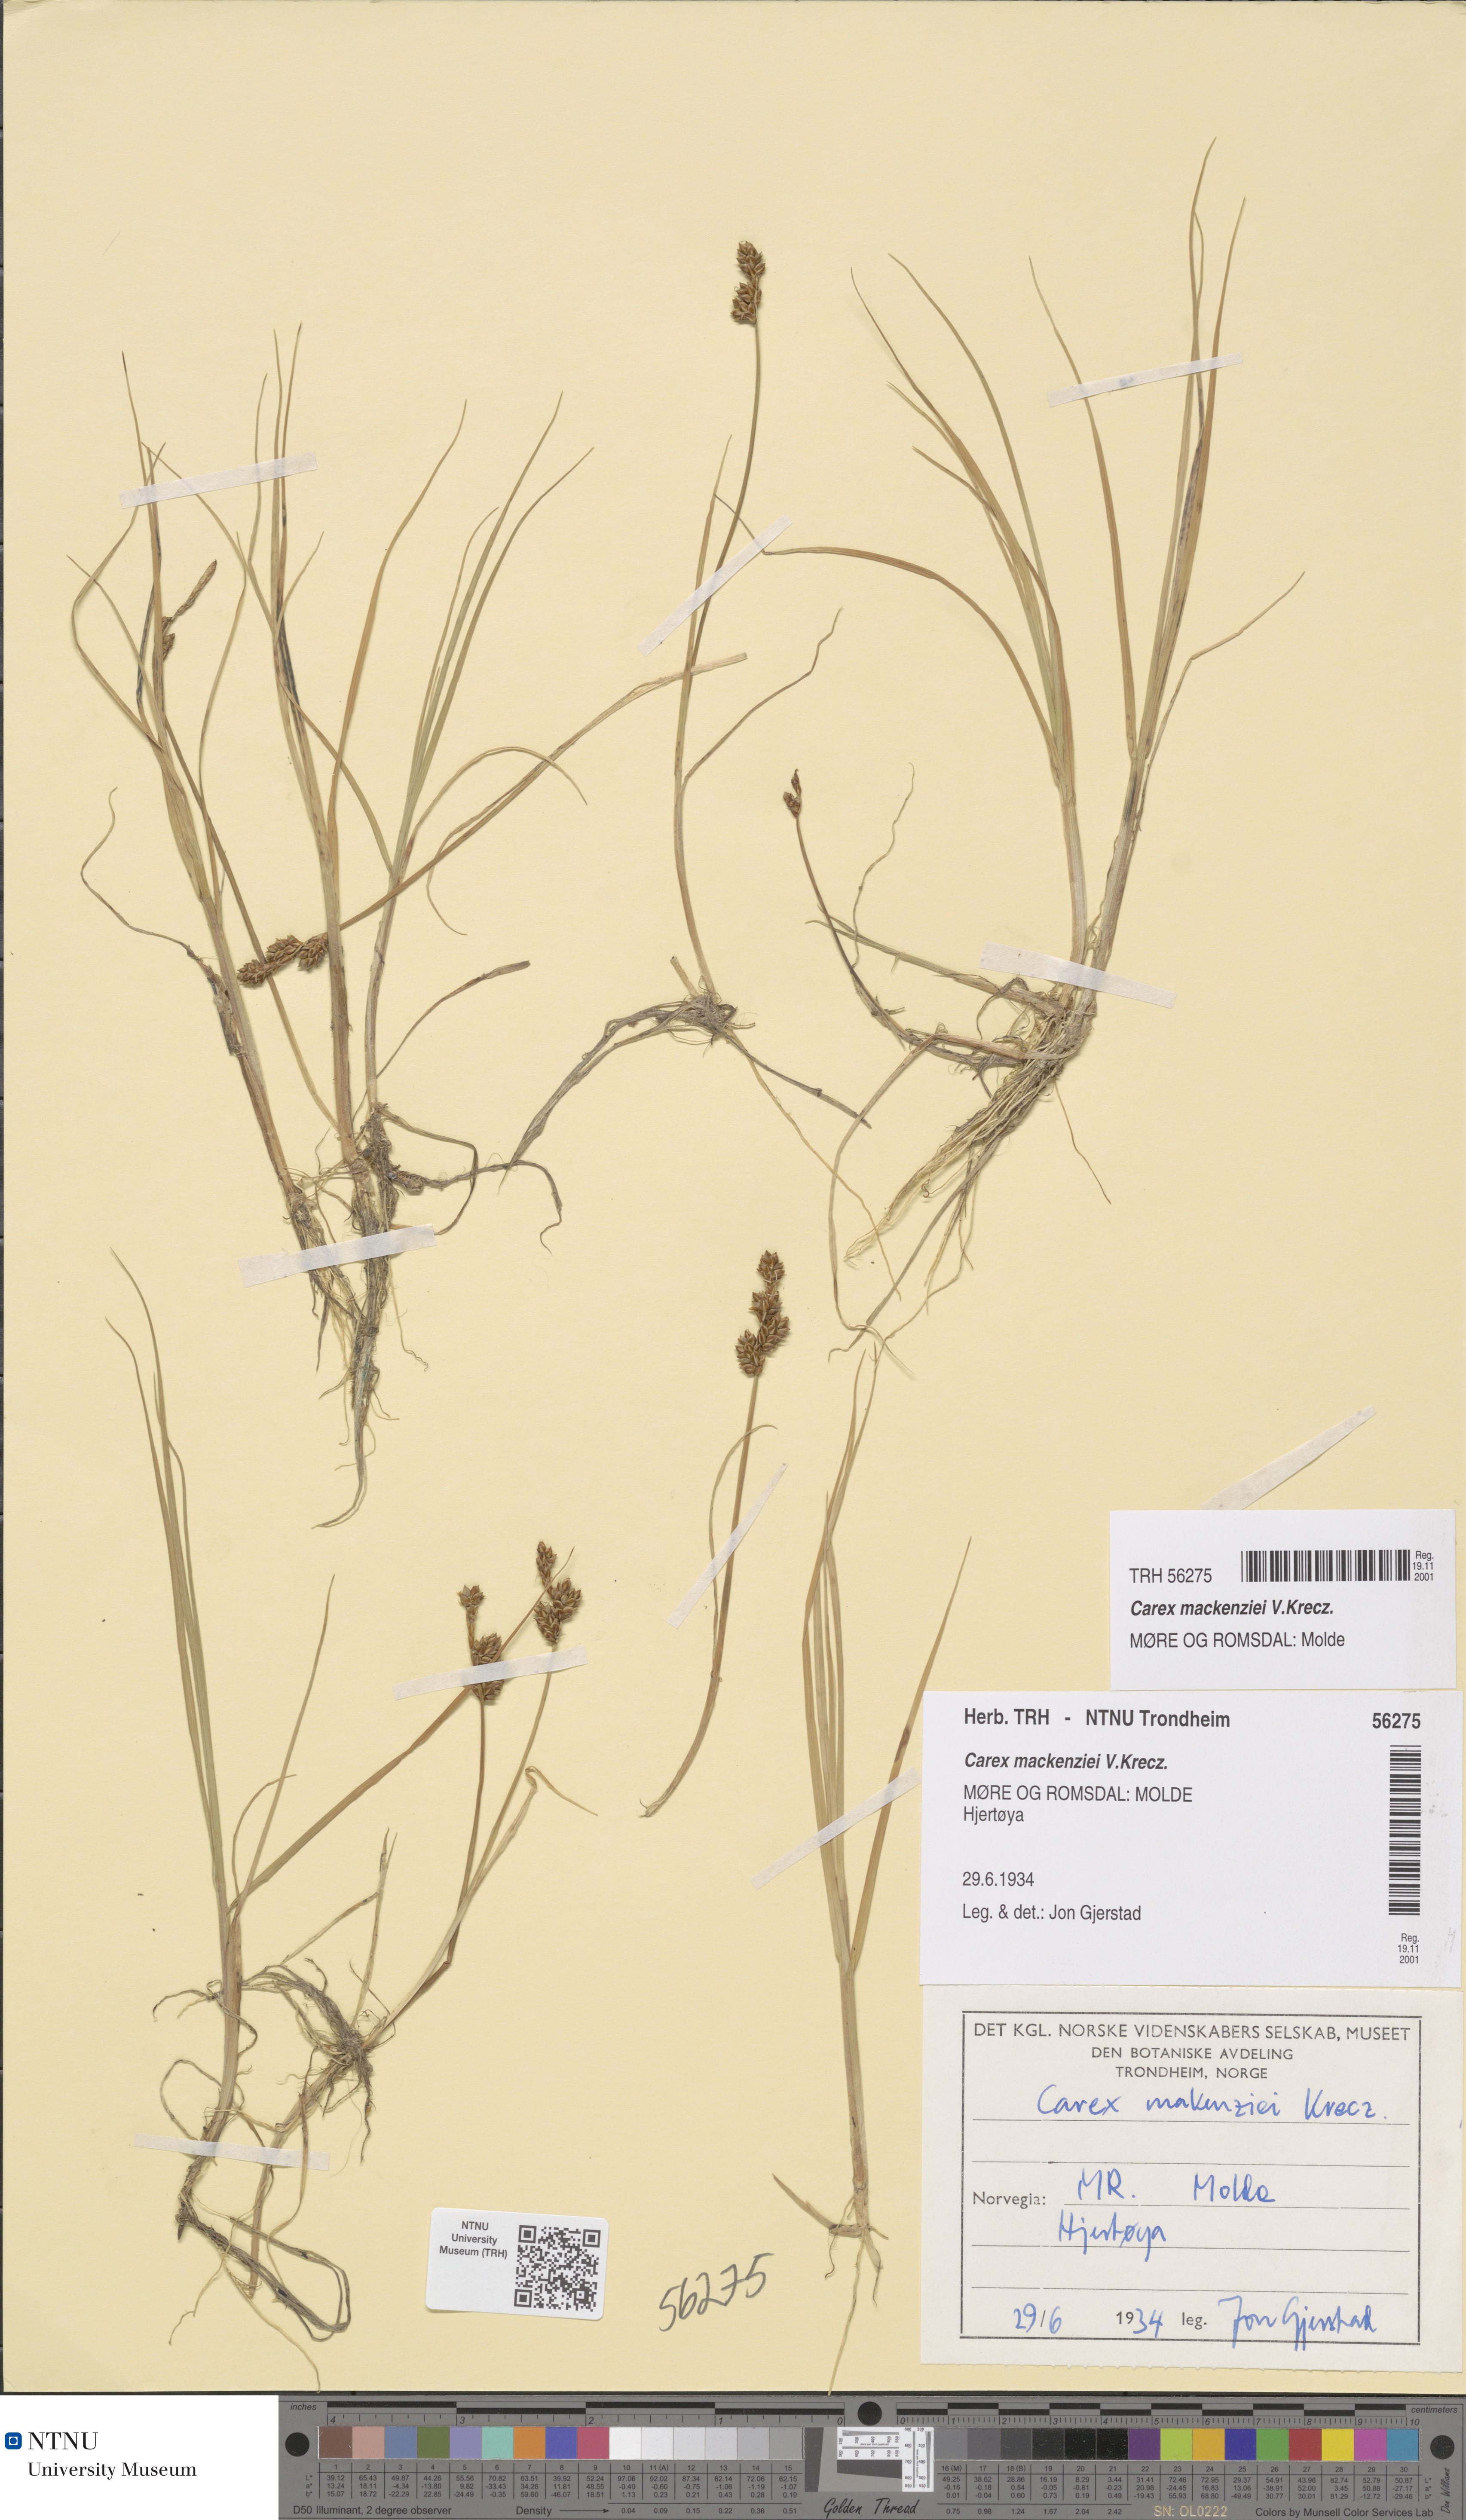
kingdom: Plantae
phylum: Tracheophyta
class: Liliopsida
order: Poales
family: Cyperaceae
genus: Carex
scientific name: Carex mackenziei
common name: Mackenzie's sedge
